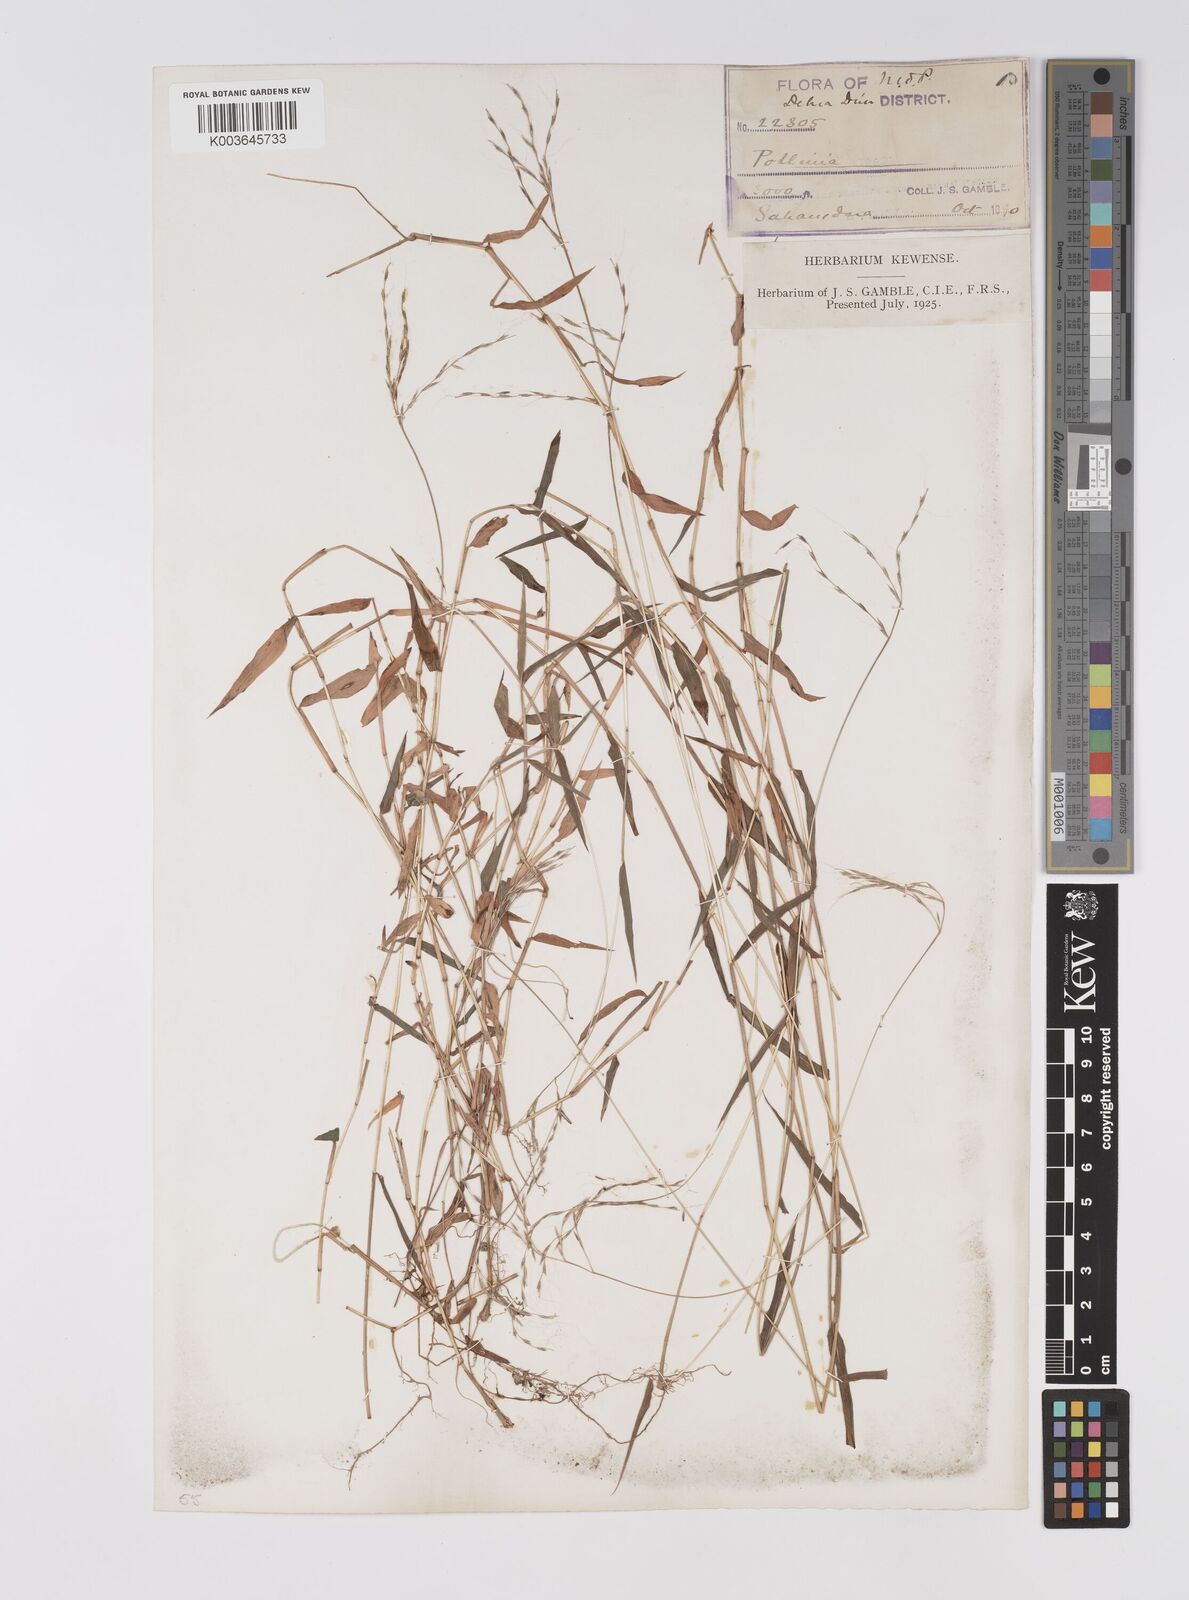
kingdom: Plantae
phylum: Tracheophyta
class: Liliopsida
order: Poales
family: Poaceae
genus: Microstegium
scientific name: Microstegium nudum
